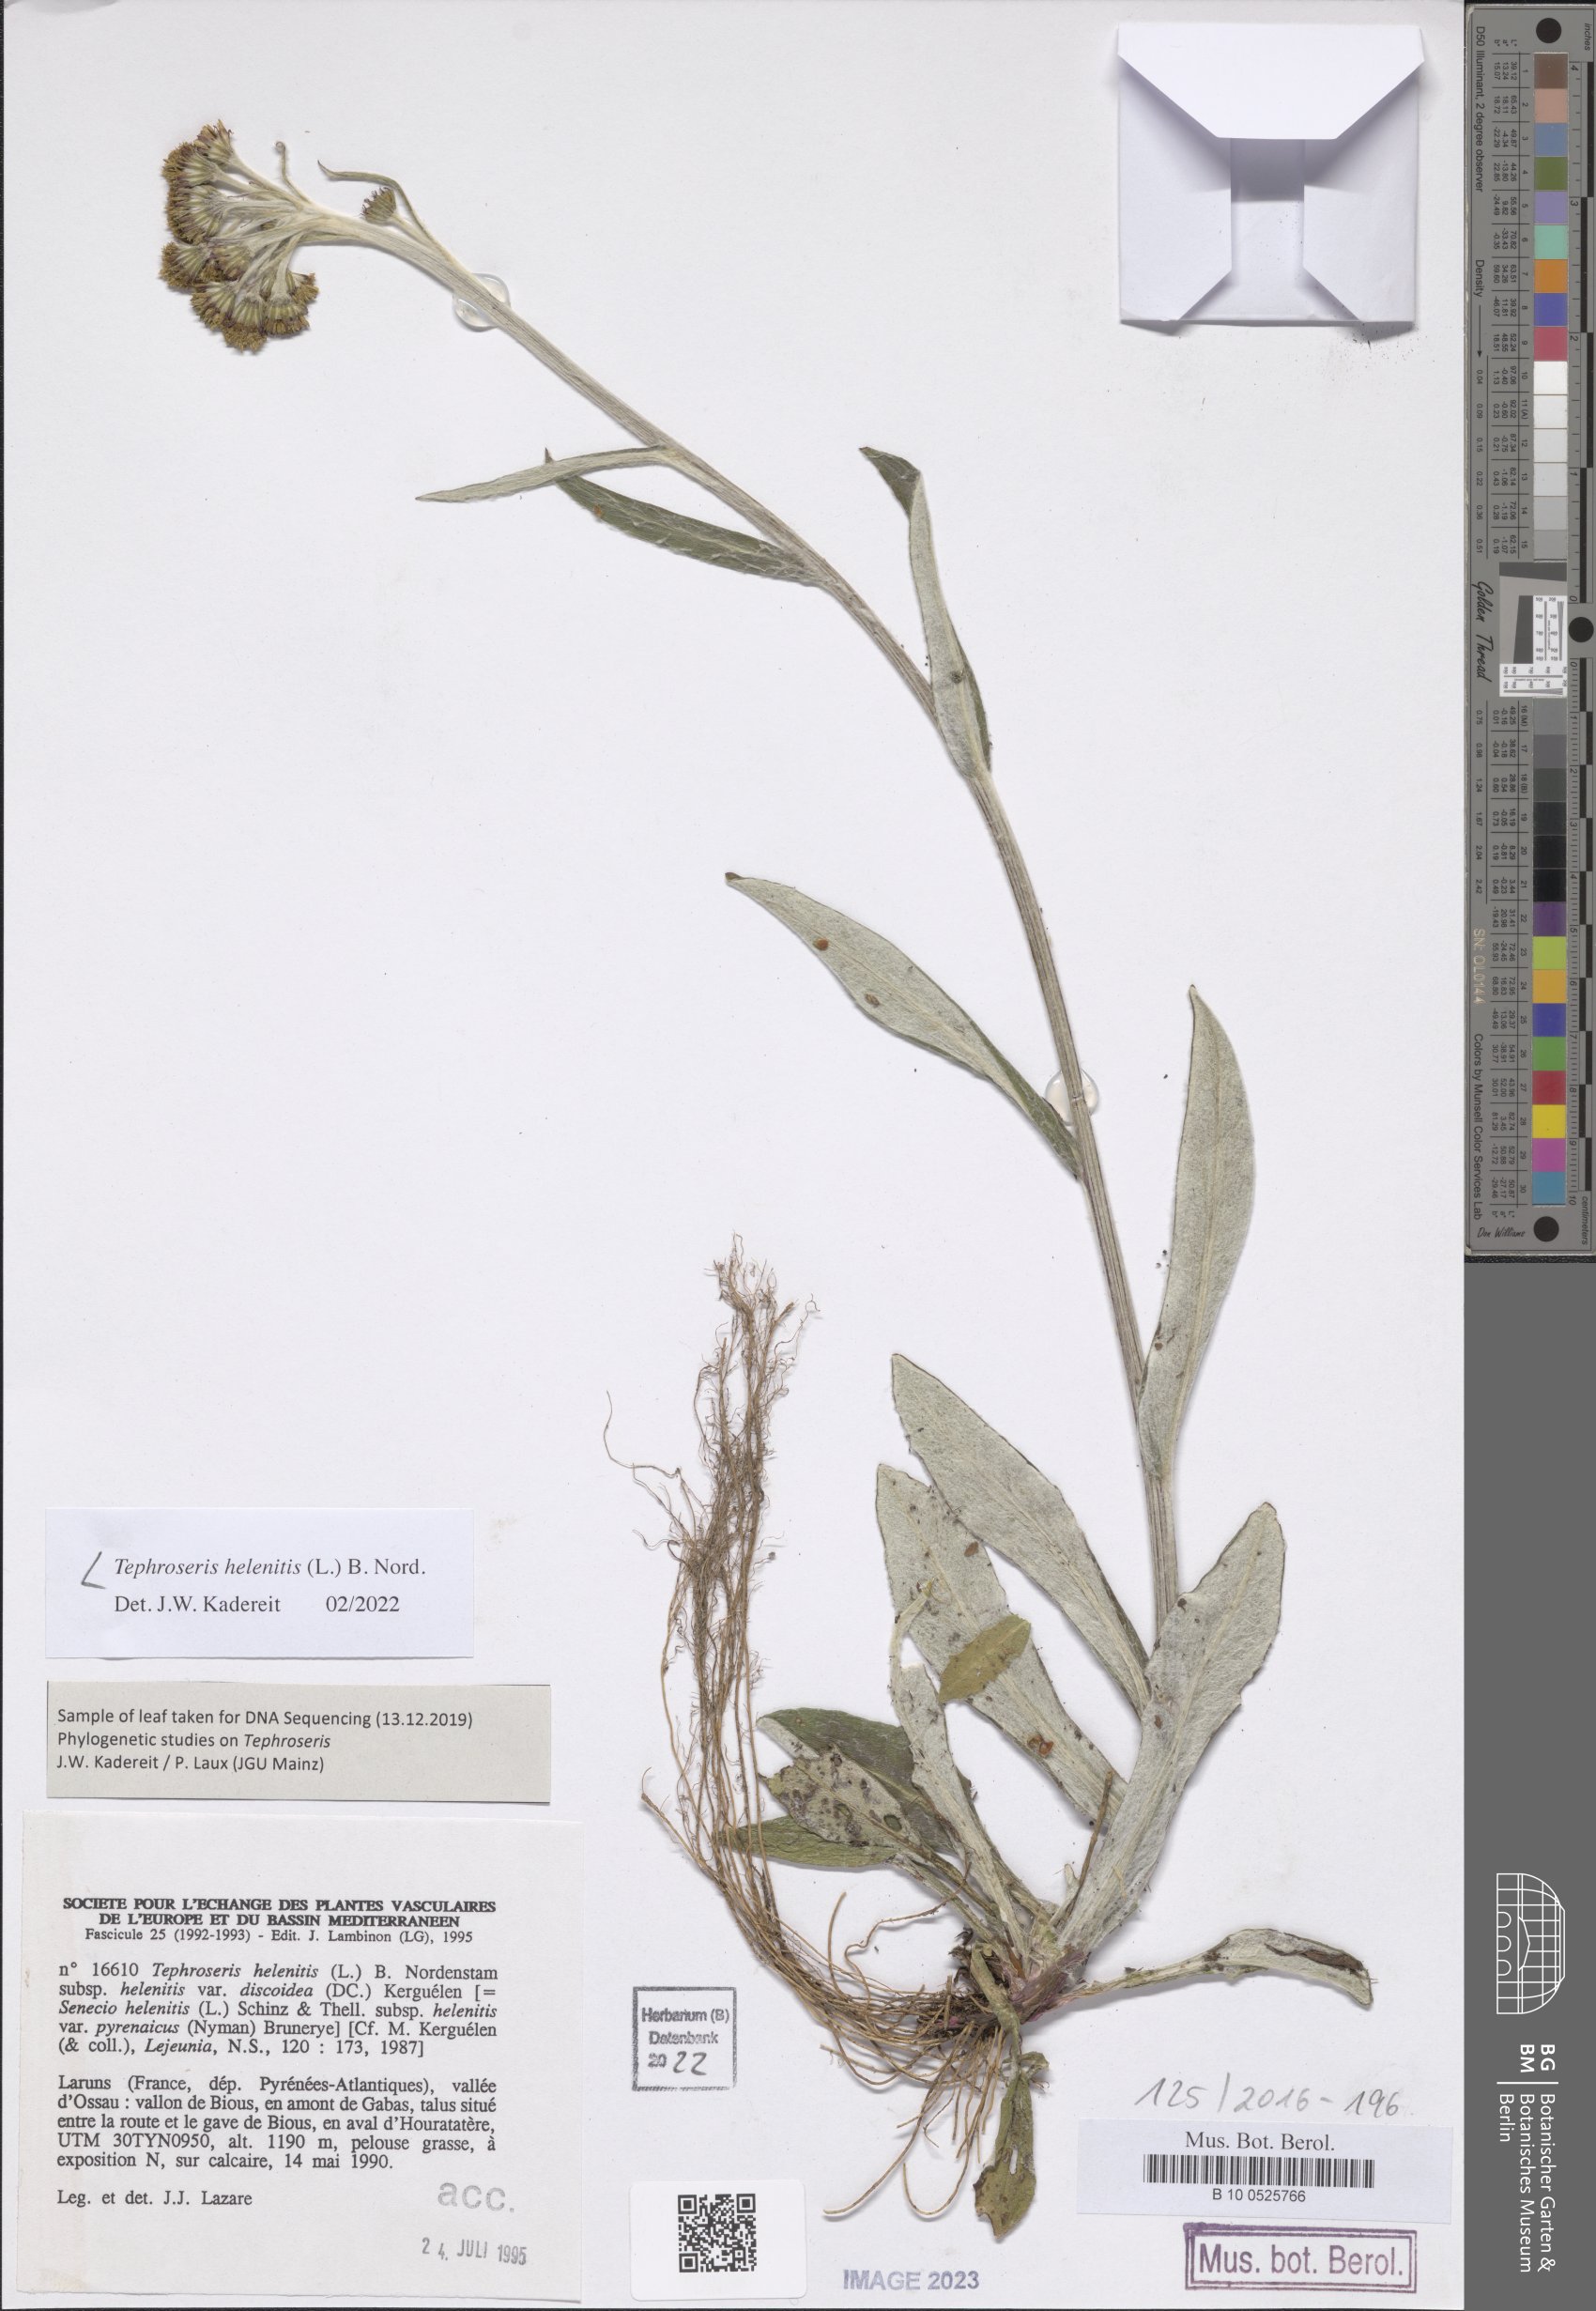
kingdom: Plantae
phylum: Tracheophyta
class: Magnoliopsida
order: Asterales
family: Asteraceae
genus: Tephroseris
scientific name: Tephroseris helenitis
